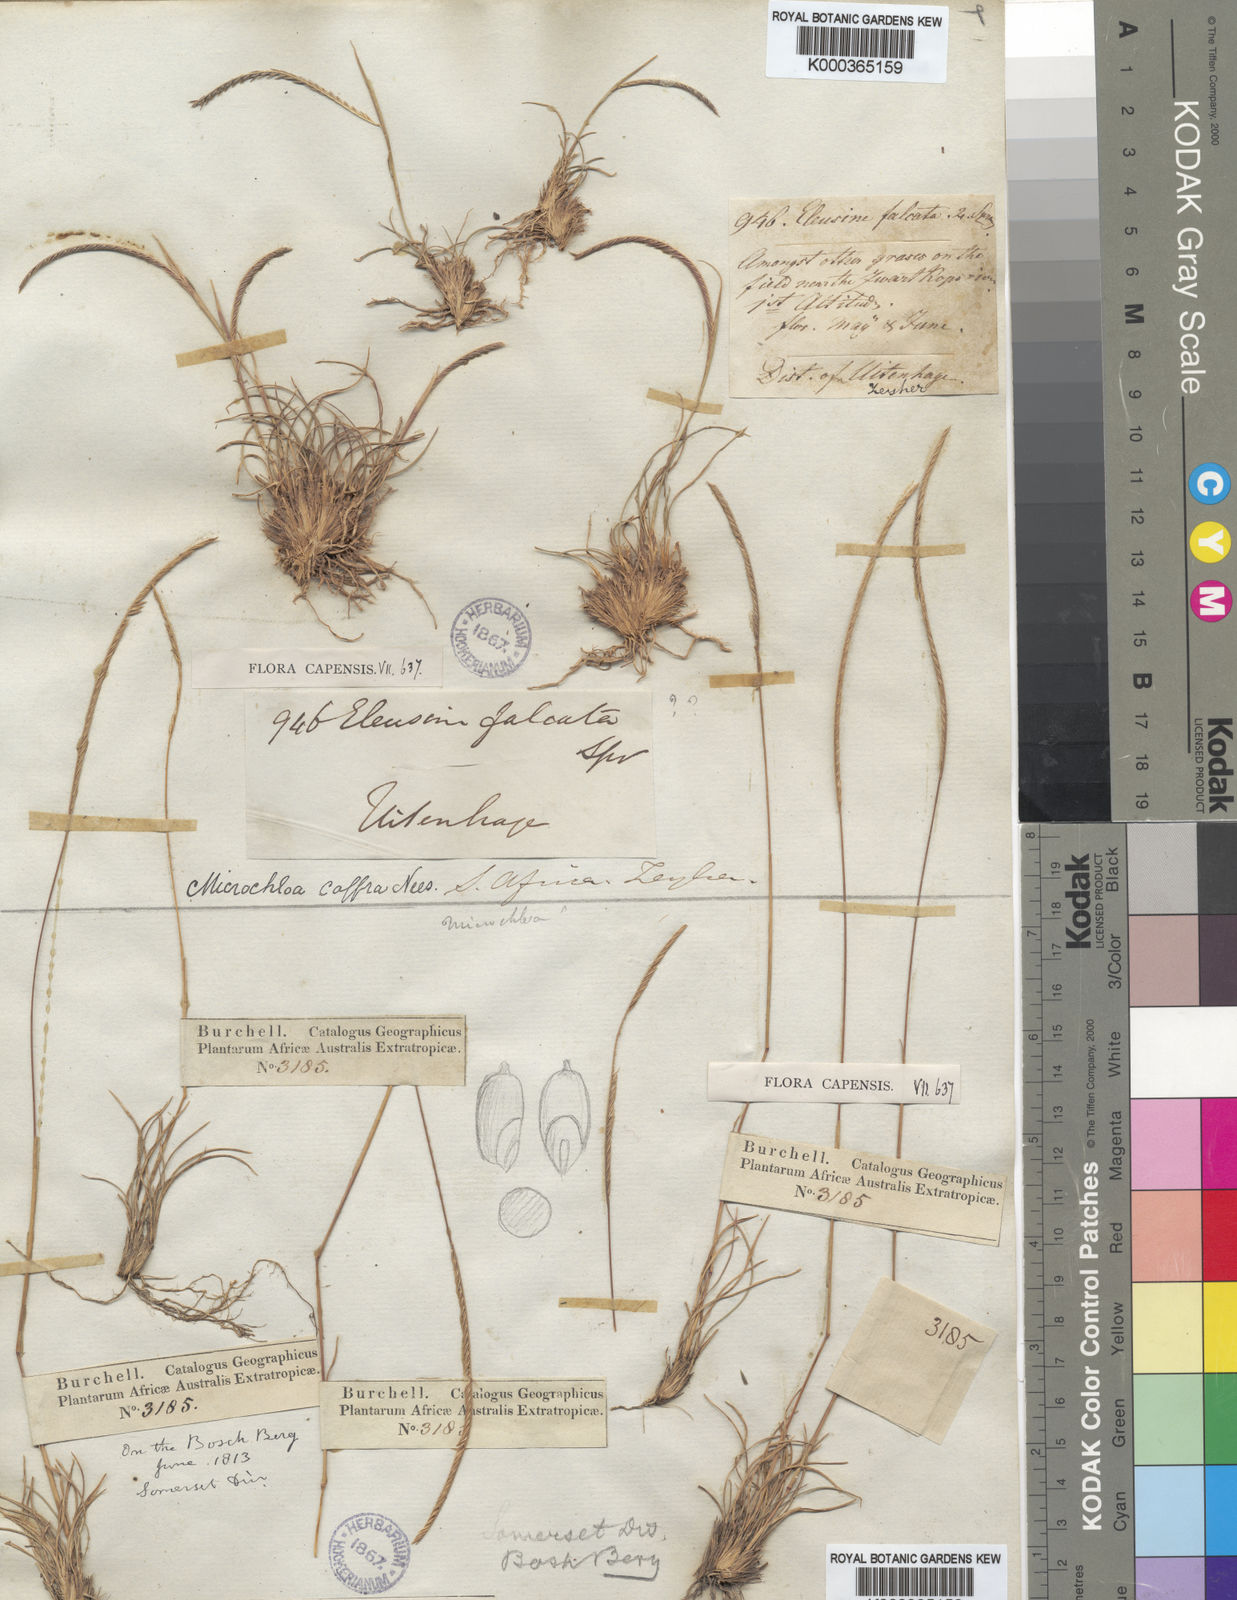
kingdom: Plantae
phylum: Tracheophyta
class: Liliopsida
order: Poales
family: Poaceae
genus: Microchloa
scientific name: Microchloa caffra
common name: Pincushion grass
